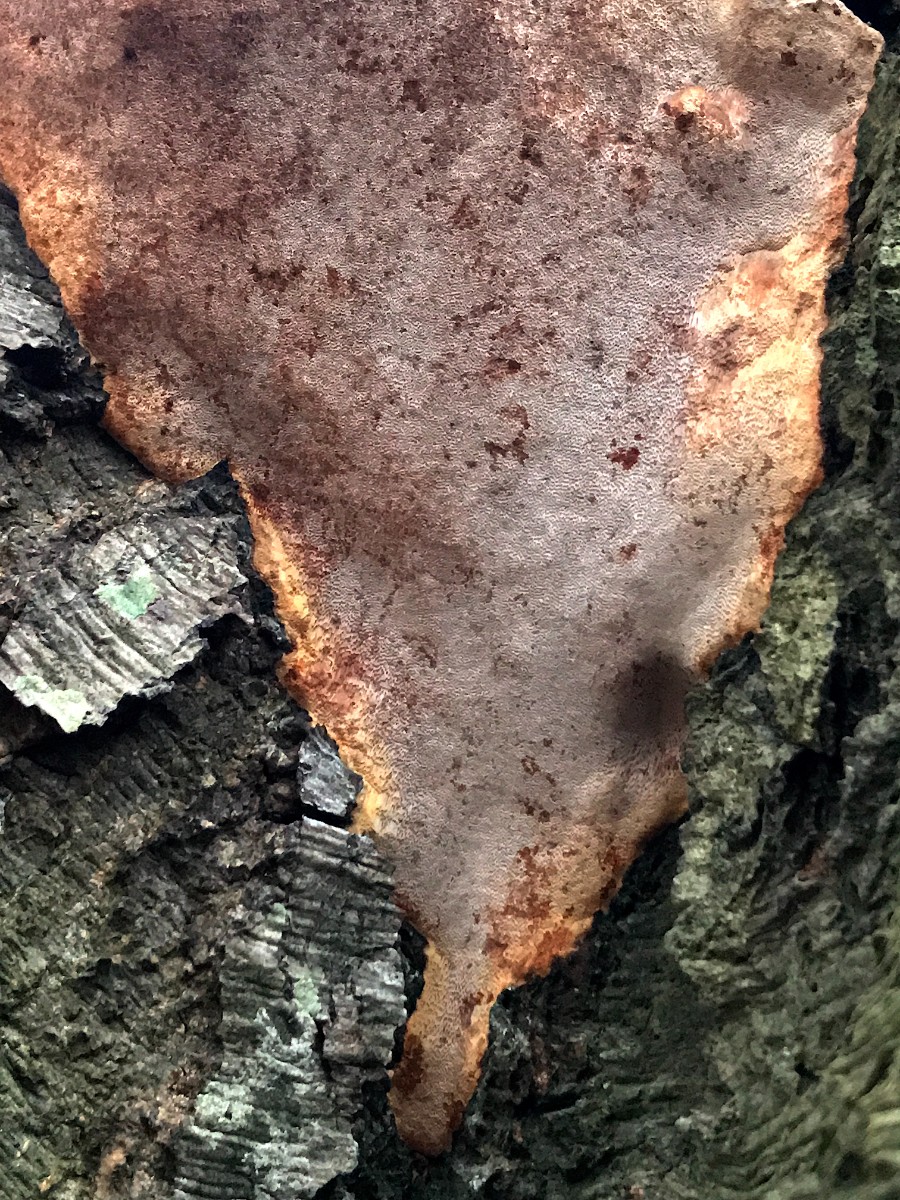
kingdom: Fungi
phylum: Basidiomycota
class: Agaricomycetes
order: Polyporales
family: Polyporaceae
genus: Vanderbylia
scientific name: Vanderbylia fraxinea
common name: stor kanelporesvamp
